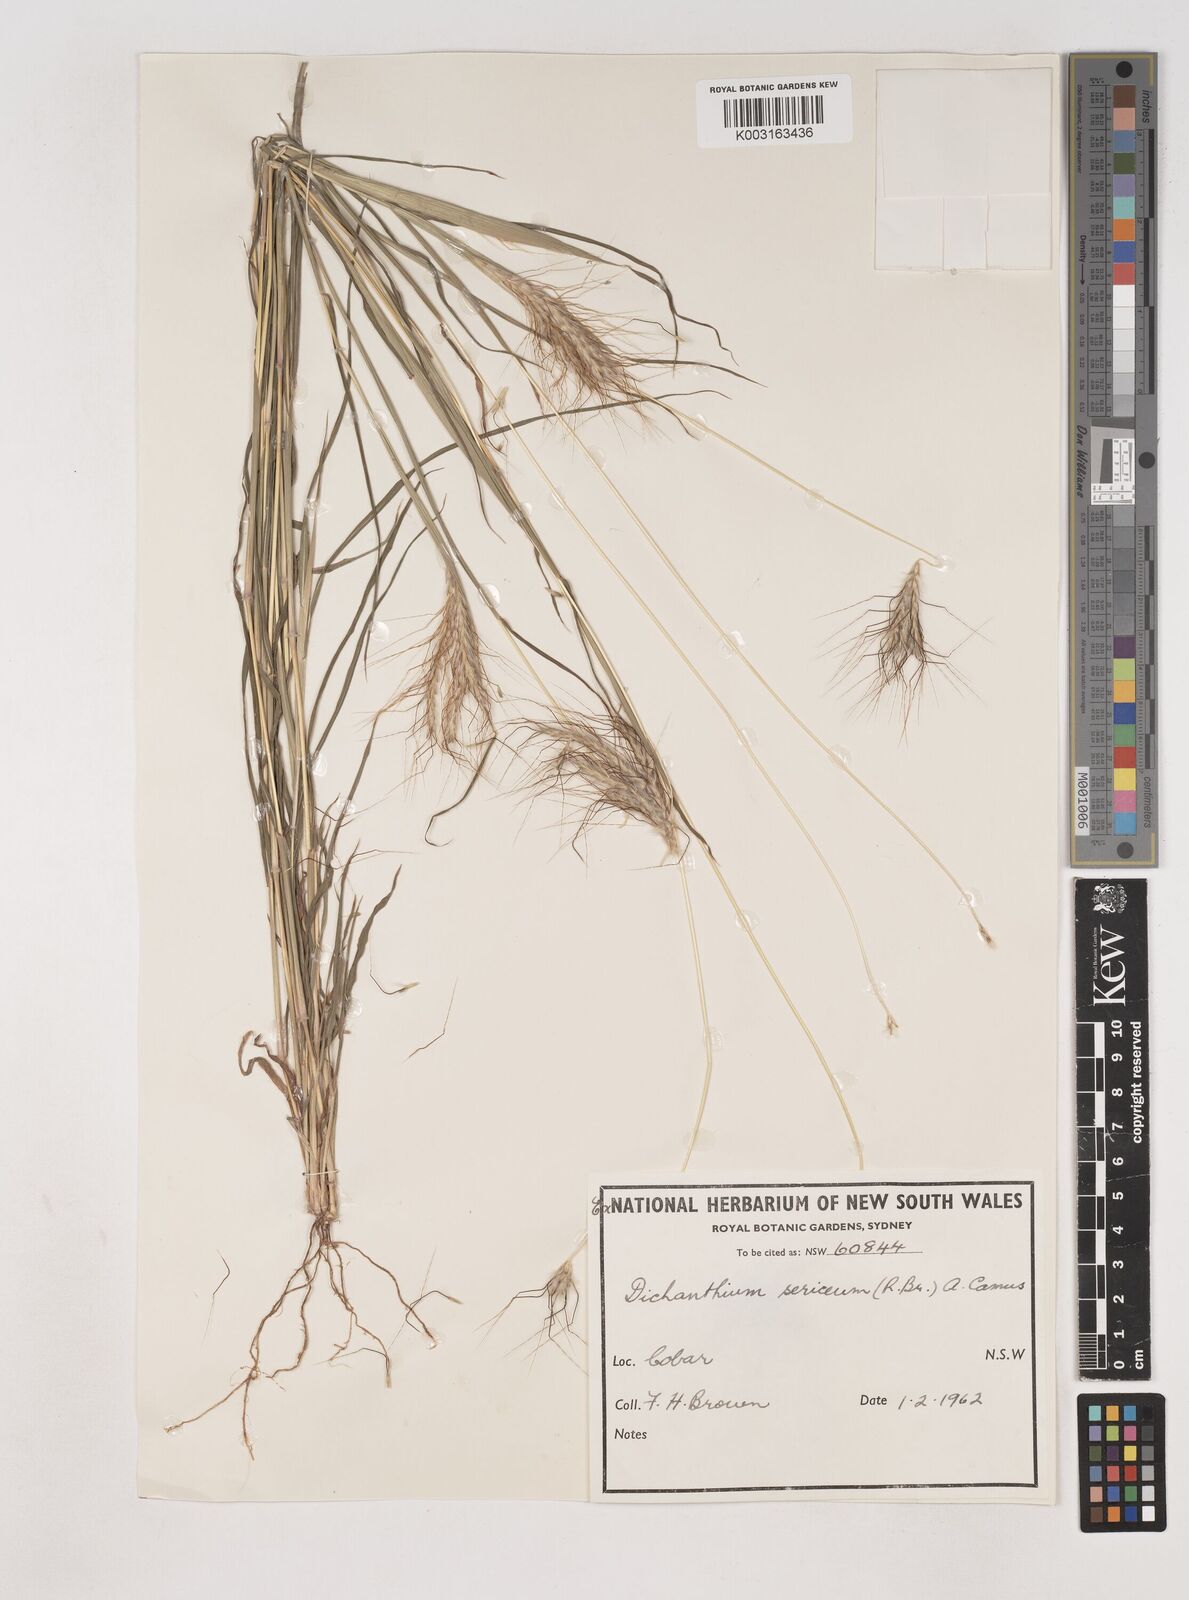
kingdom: Plantae
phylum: Tracheophyta
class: Liliopsida
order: Poales
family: Poaceae
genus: Dichanthium
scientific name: Dichanthium sericeum
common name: Silky bluestem
